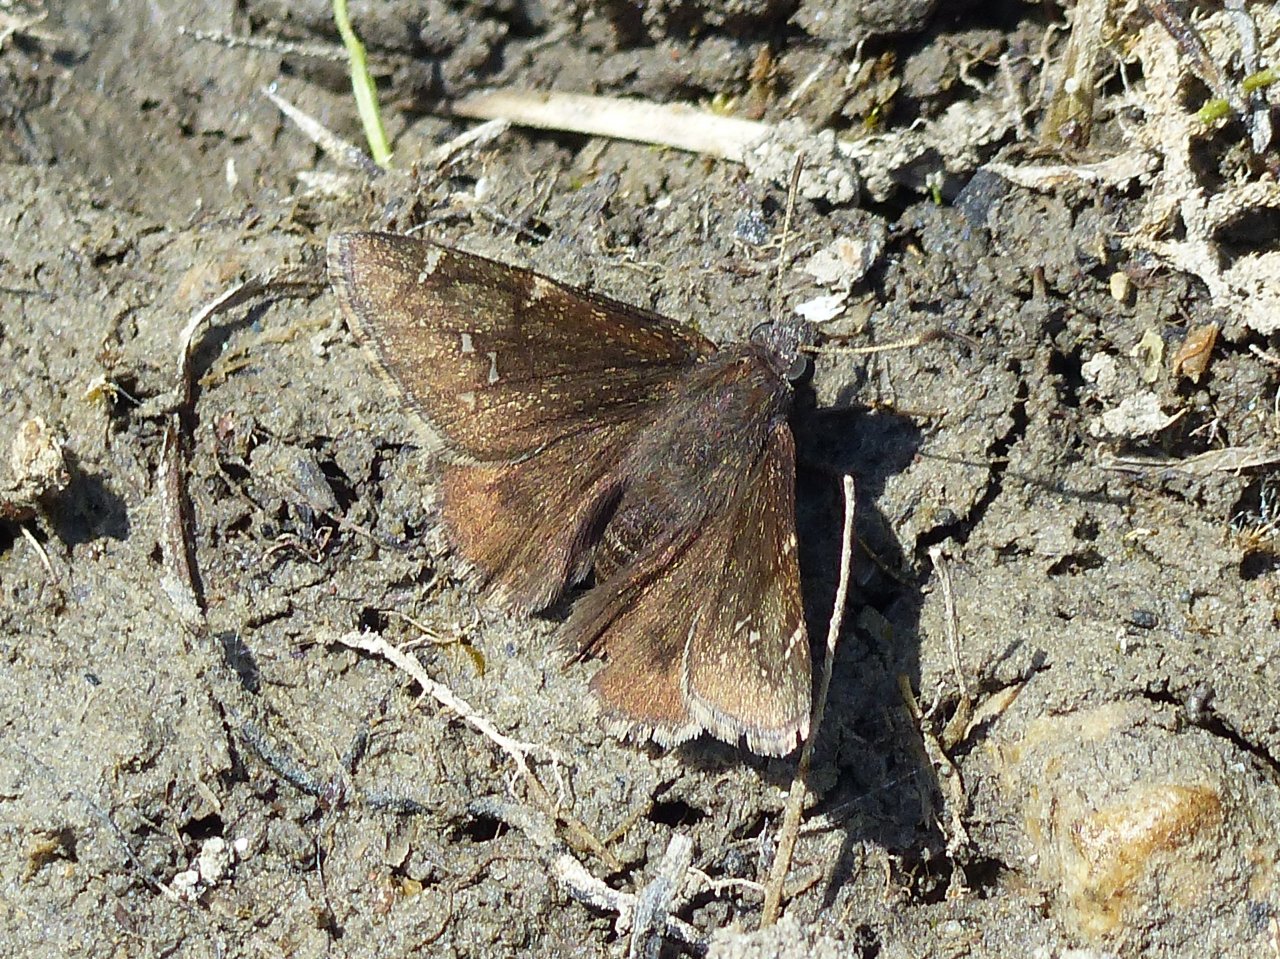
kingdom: Animalia
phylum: Arthropoda
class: Insecta
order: Lepidoptera
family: Hesperiidae
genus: Autochton
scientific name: Autochton
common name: Northern Cloudywing
